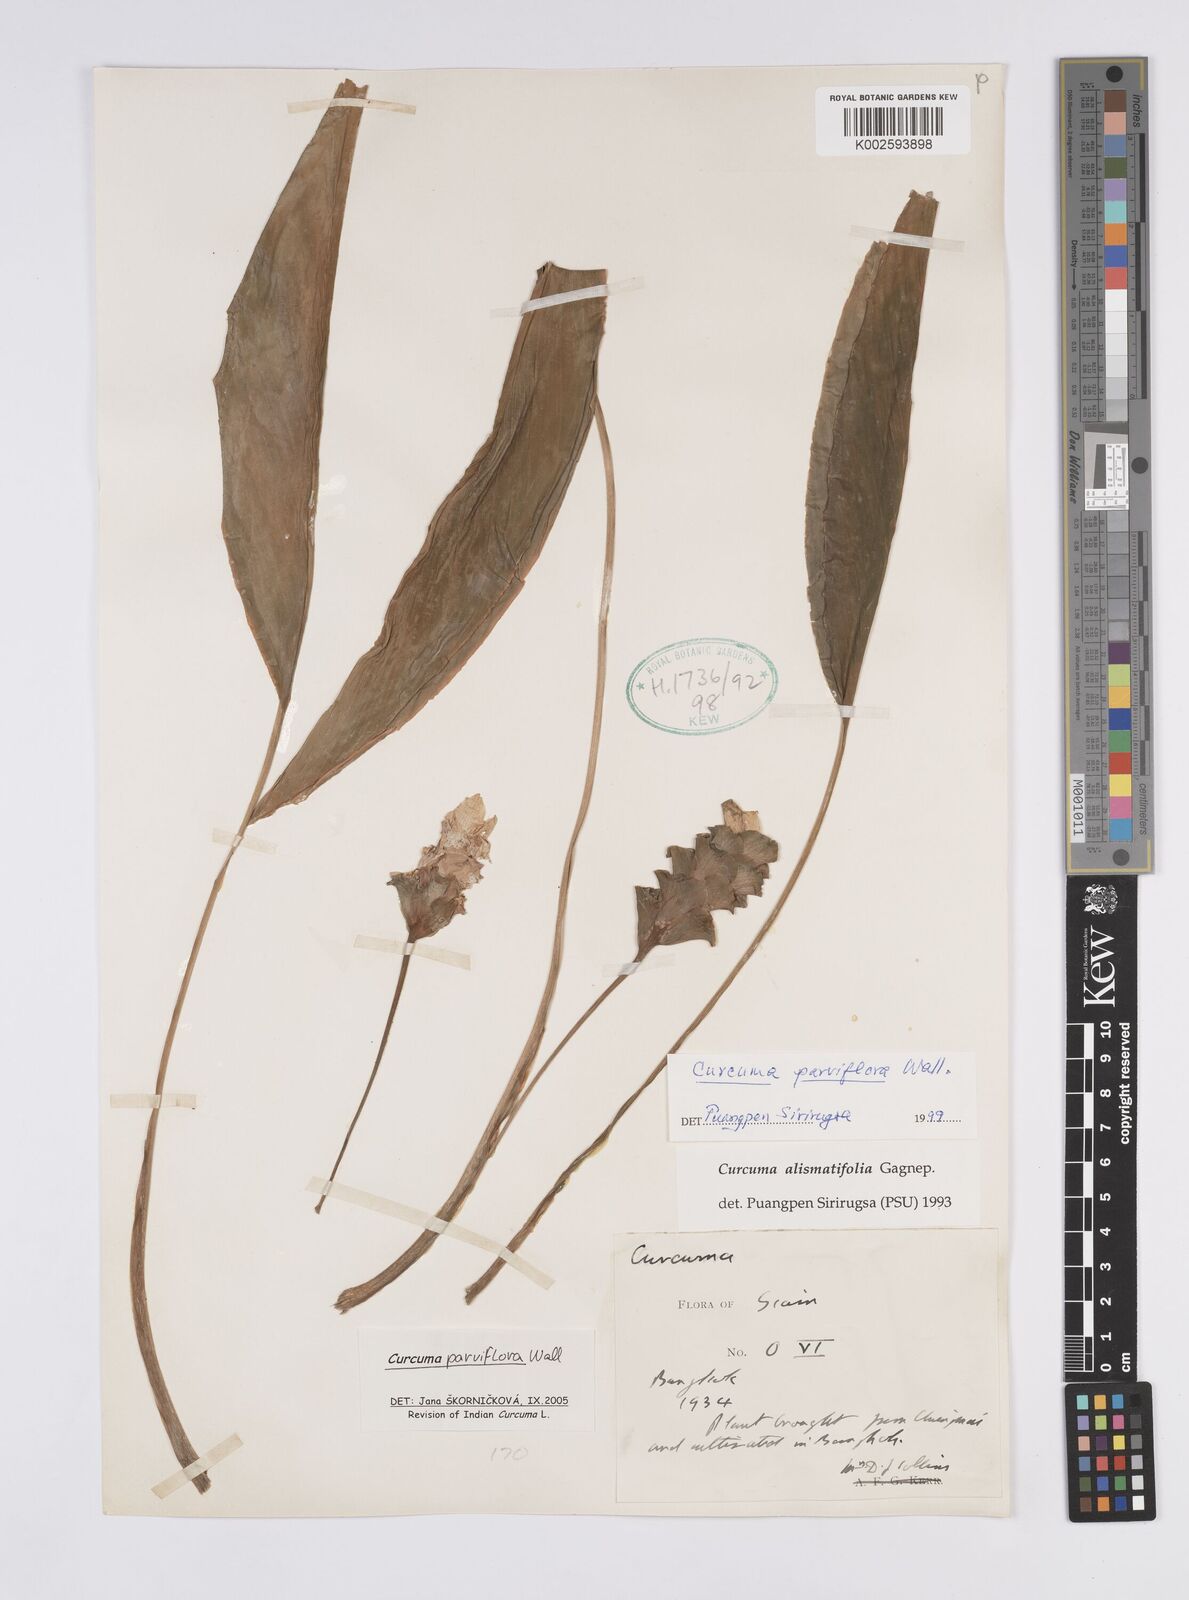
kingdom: Plantae
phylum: Tracheophyta
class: Liliopsida
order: Zingiberales
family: Zingiberaceae
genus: Curcuma
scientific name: Curcuma parviflora
